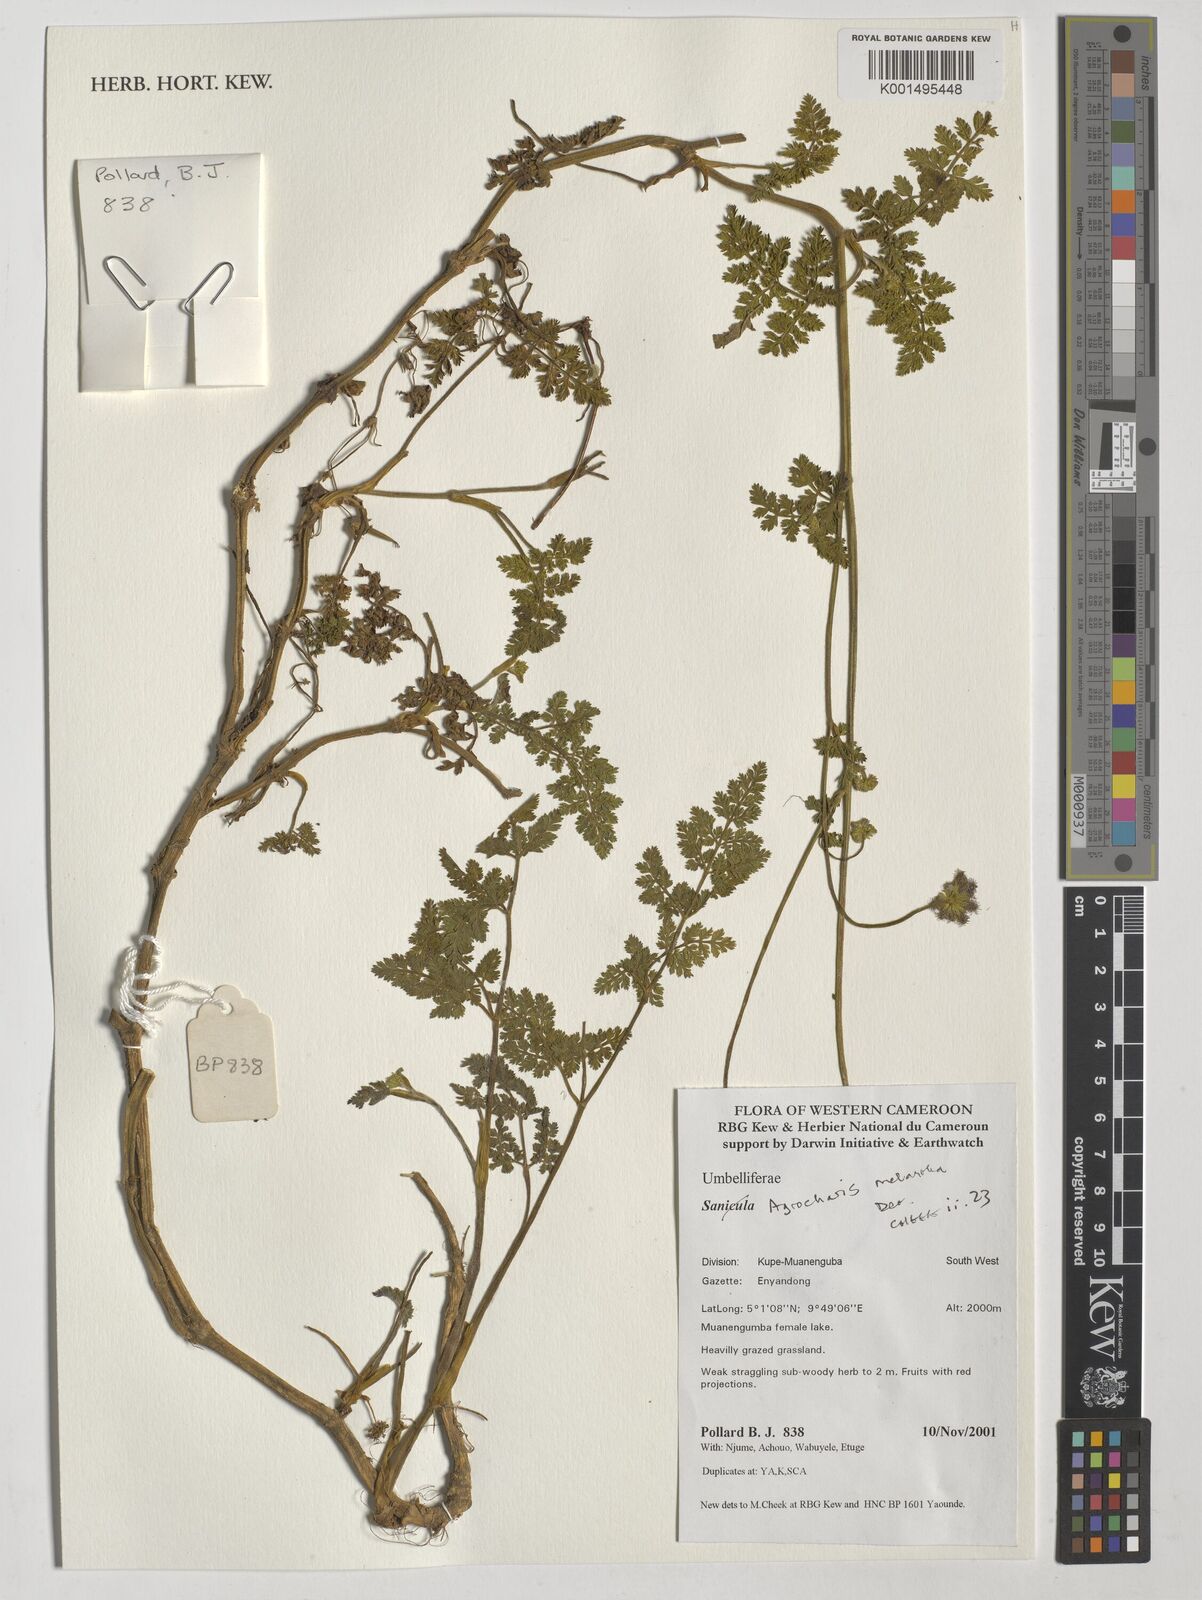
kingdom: Plantae
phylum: Tracheophyta
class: Magnoliopsida
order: Apiales
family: Apiaceae
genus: Daucus
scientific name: Daucus melananthus
